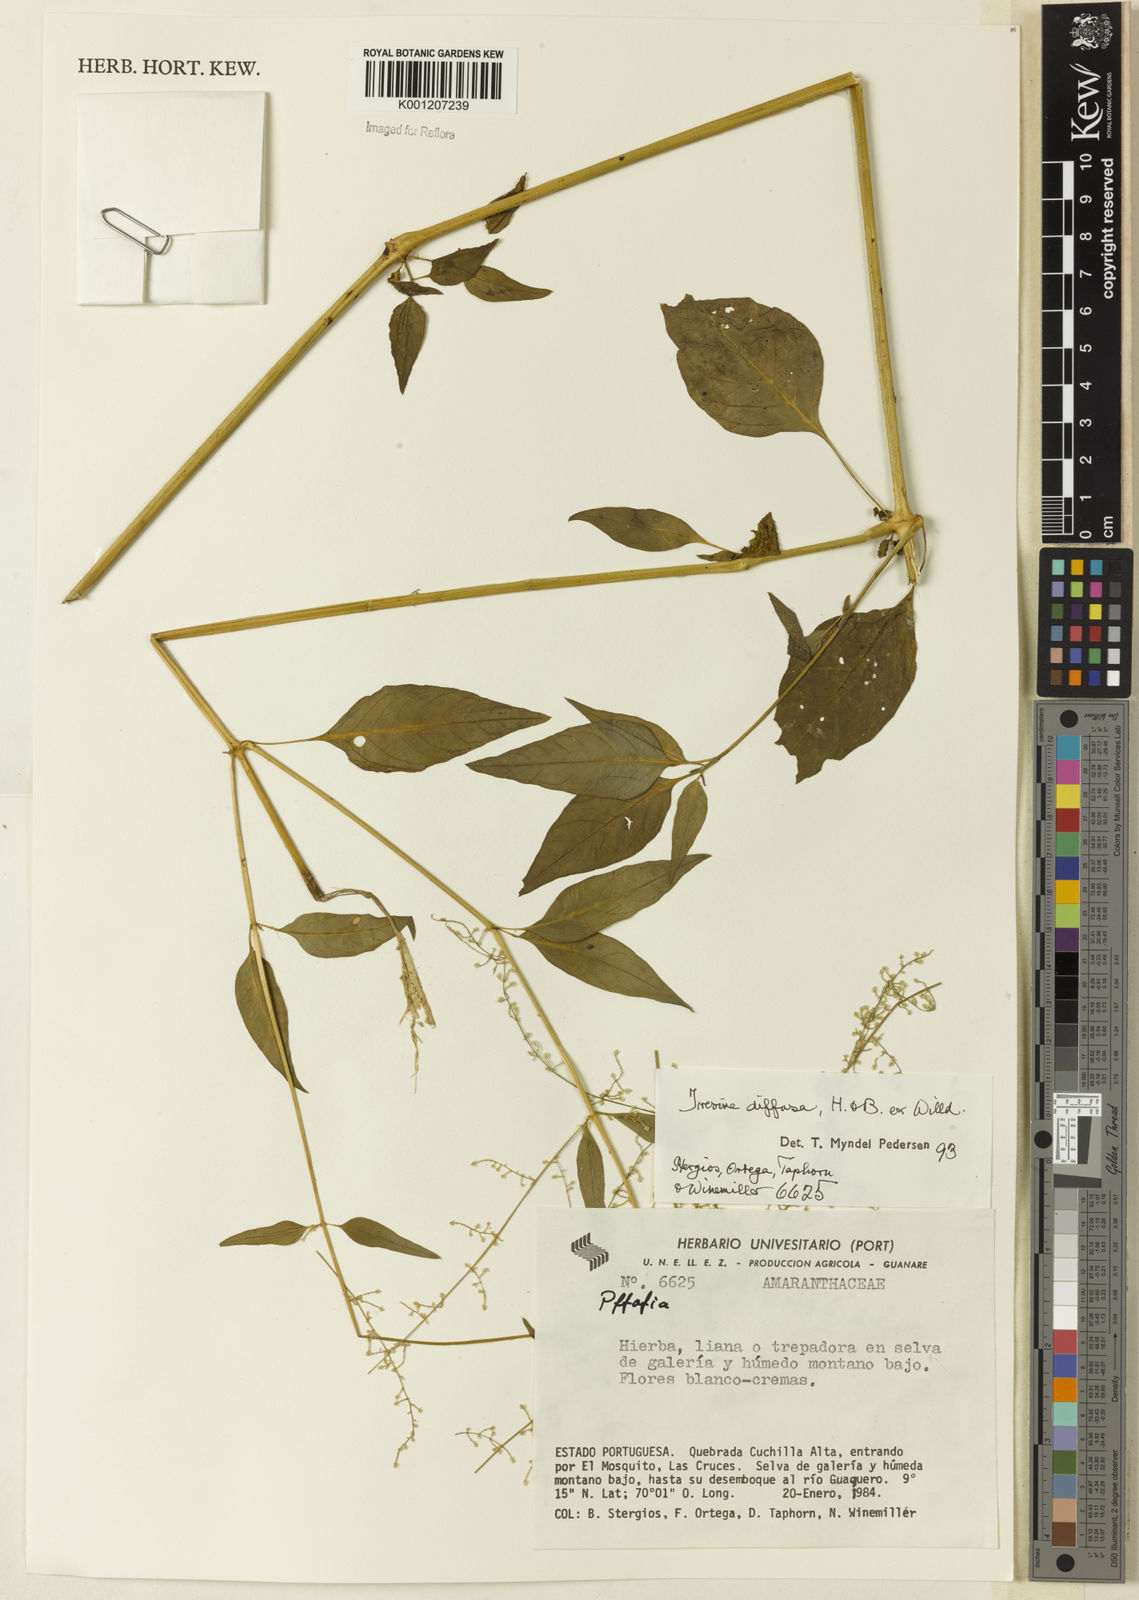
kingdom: Plantae
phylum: Tracheophyta
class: Magnoliopsida
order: Caryophyllales
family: Amaranthaceae
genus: Iresine
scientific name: Iresine rhizomatosa
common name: Juda's-bush
